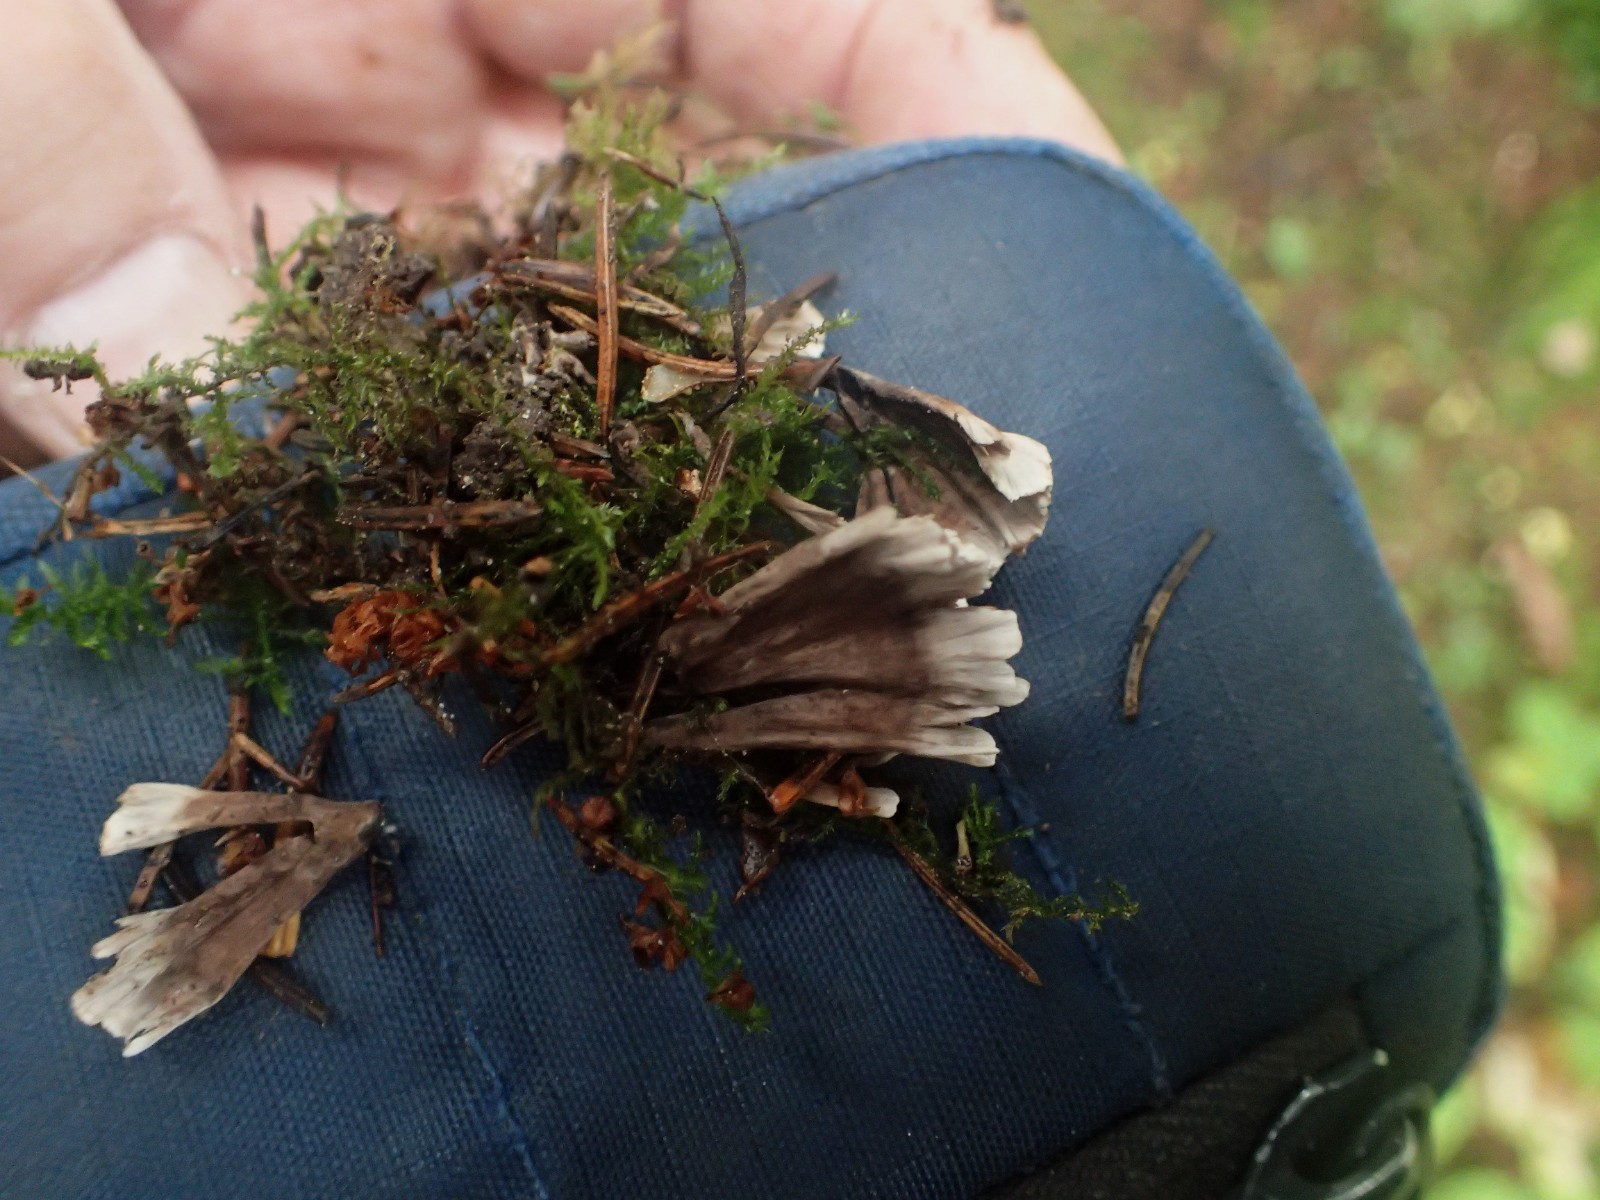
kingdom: Fungi
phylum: Basidiomycota
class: Agaricomycetes
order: Thelephorales
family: Thelephoraceae
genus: Thelephora
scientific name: Thelephora palmata
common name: grenet frynsesvamp
